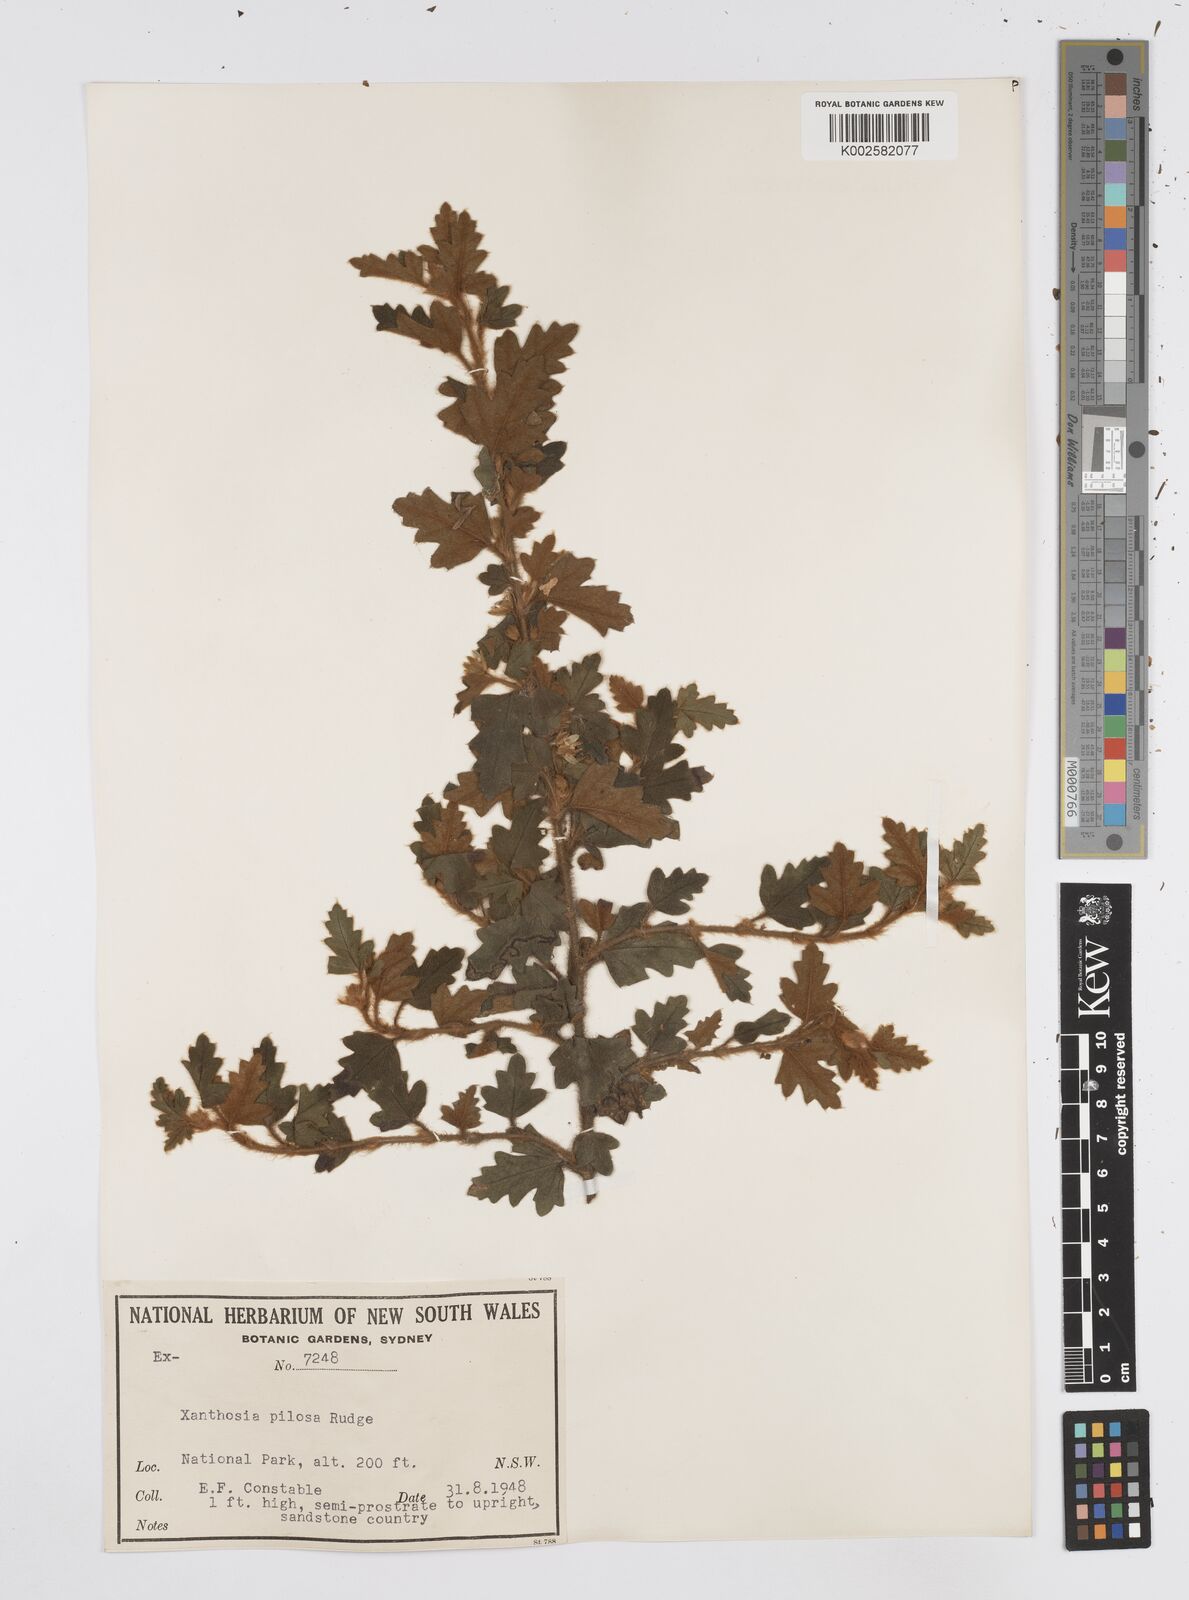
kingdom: Plantae
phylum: Tracheophyta
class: Magnoliopsida
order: Apiales
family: Apiaceae
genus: Xanthosia
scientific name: Xanthosia pilosa
